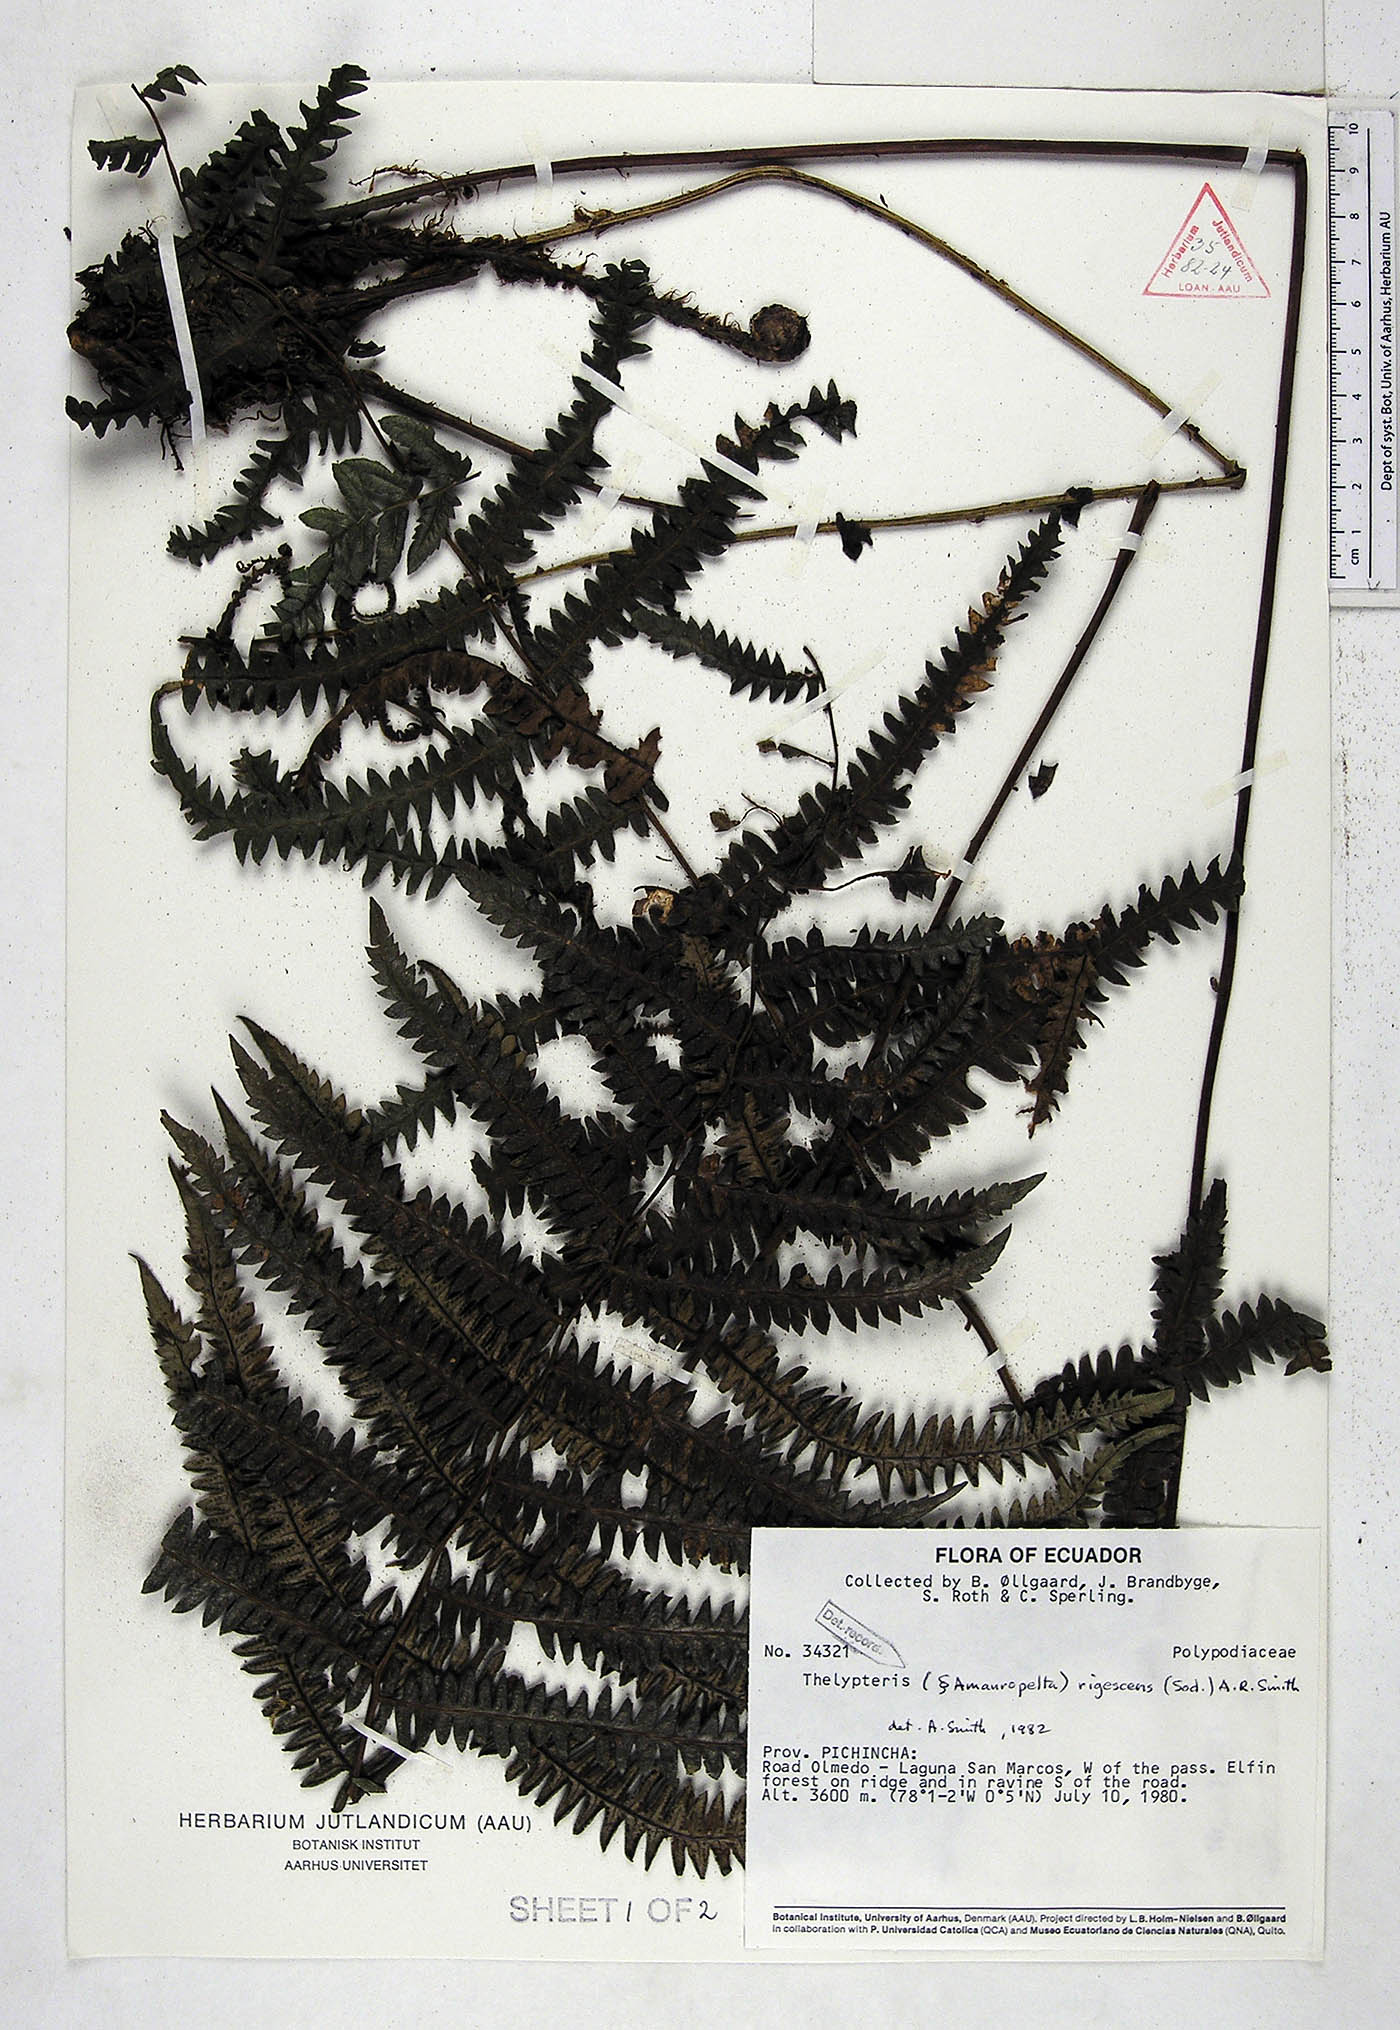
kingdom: Plantae
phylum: Tracheophyta
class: Polypodiopsida
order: Polypodiales
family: Thelypteridaceae
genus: Amauropelta
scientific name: Amauropelta rigescens
